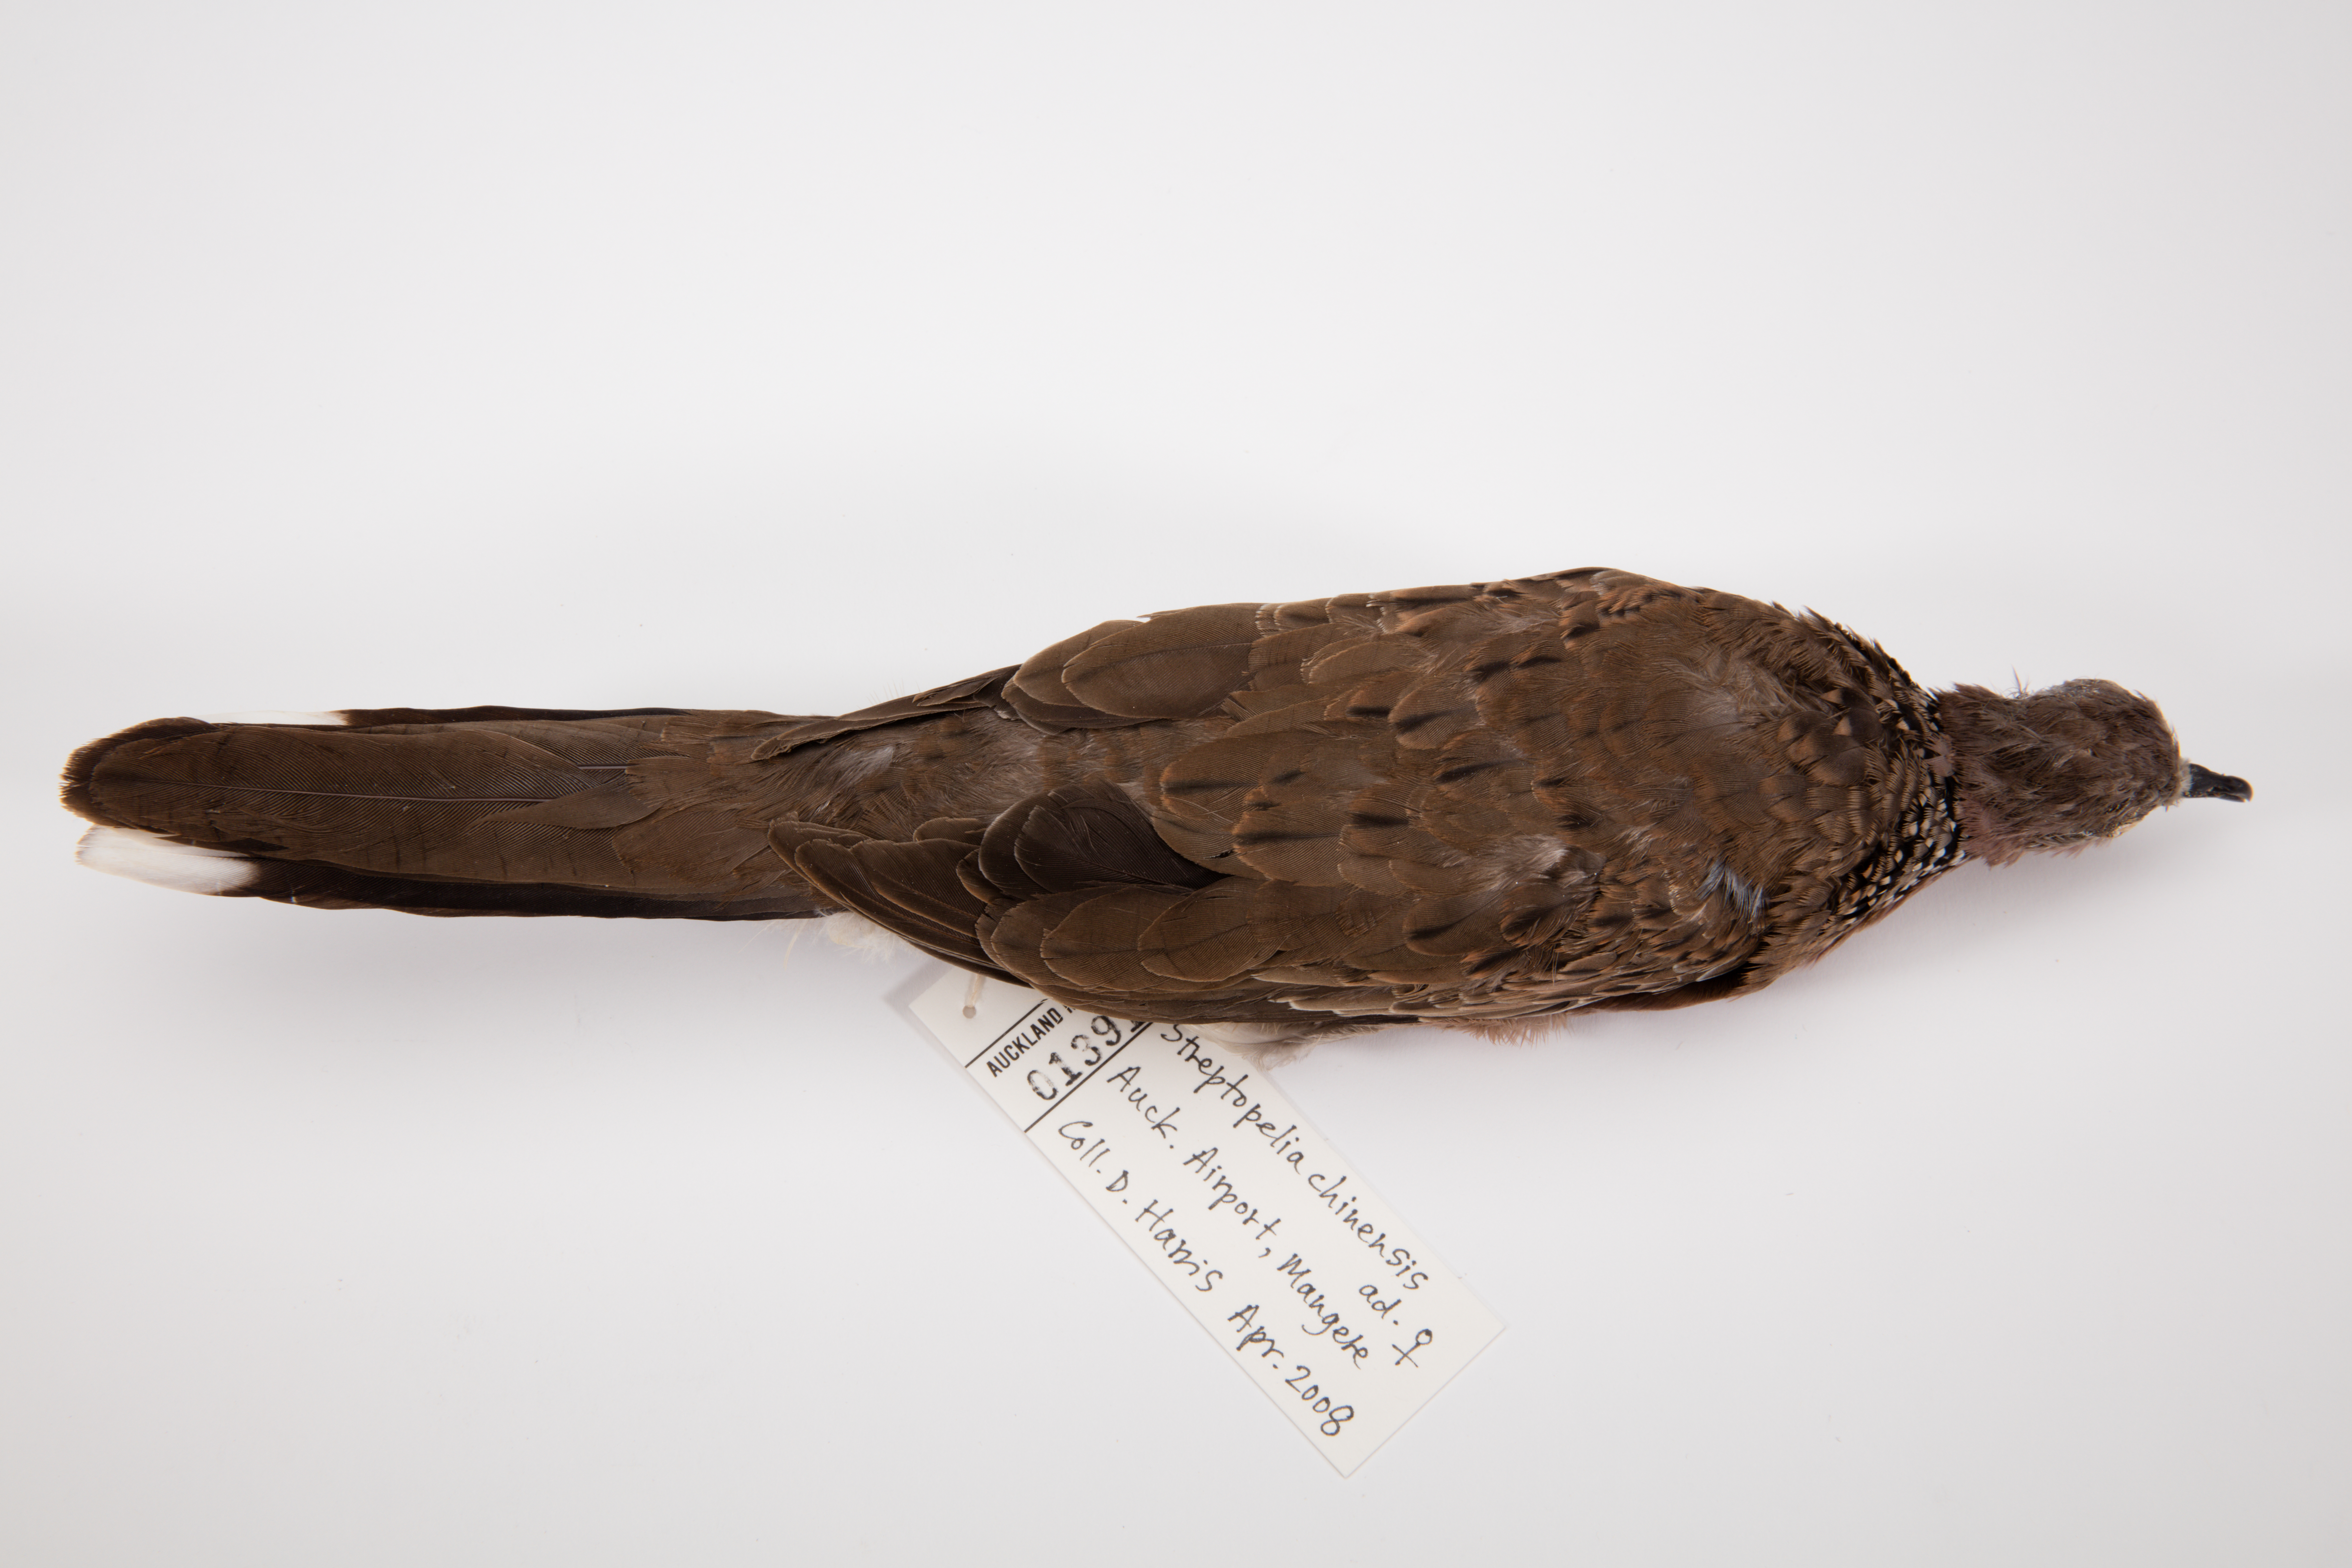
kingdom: Animalia
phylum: Chordata
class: Aves
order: Columbiformes
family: Columbidae
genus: Spilopelia
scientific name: Spilopelia chinensis
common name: Spotted dove
